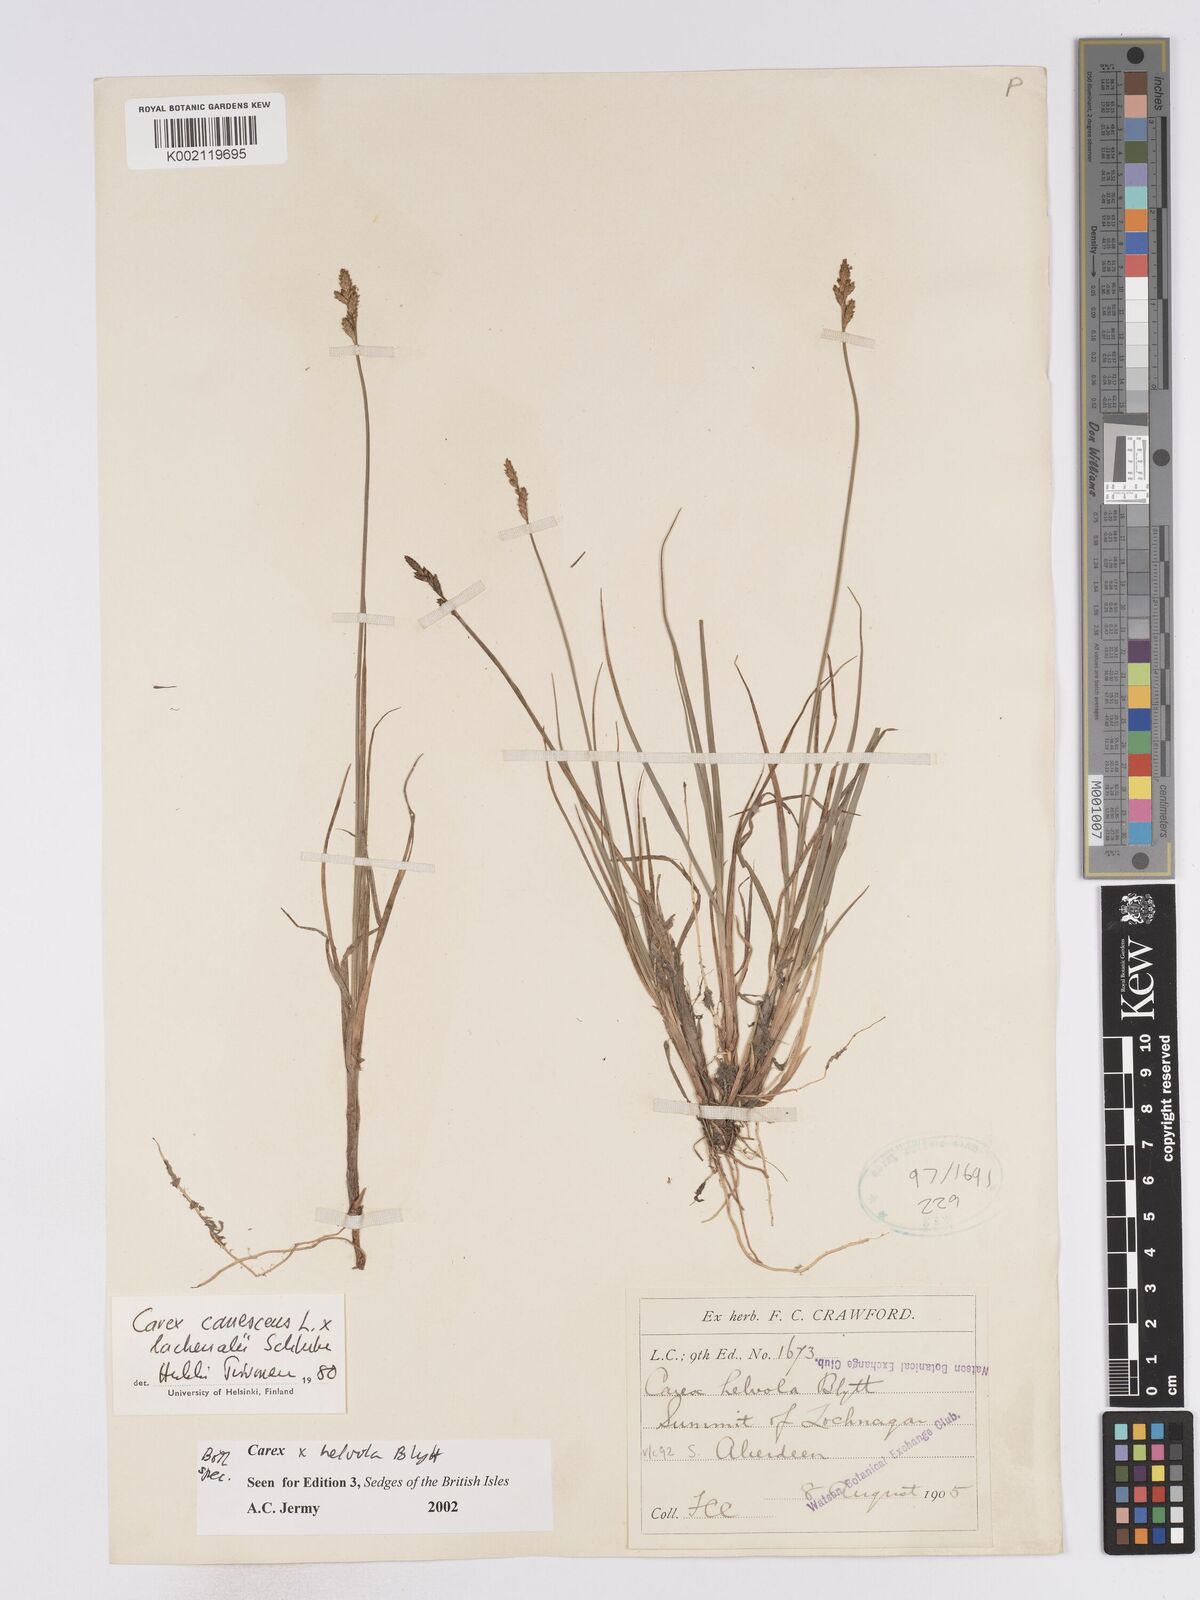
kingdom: Plantae
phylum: Tracheophyta
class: Liliopsida
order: Poales
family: Cyperaceae
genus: Carex
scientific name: Carex
